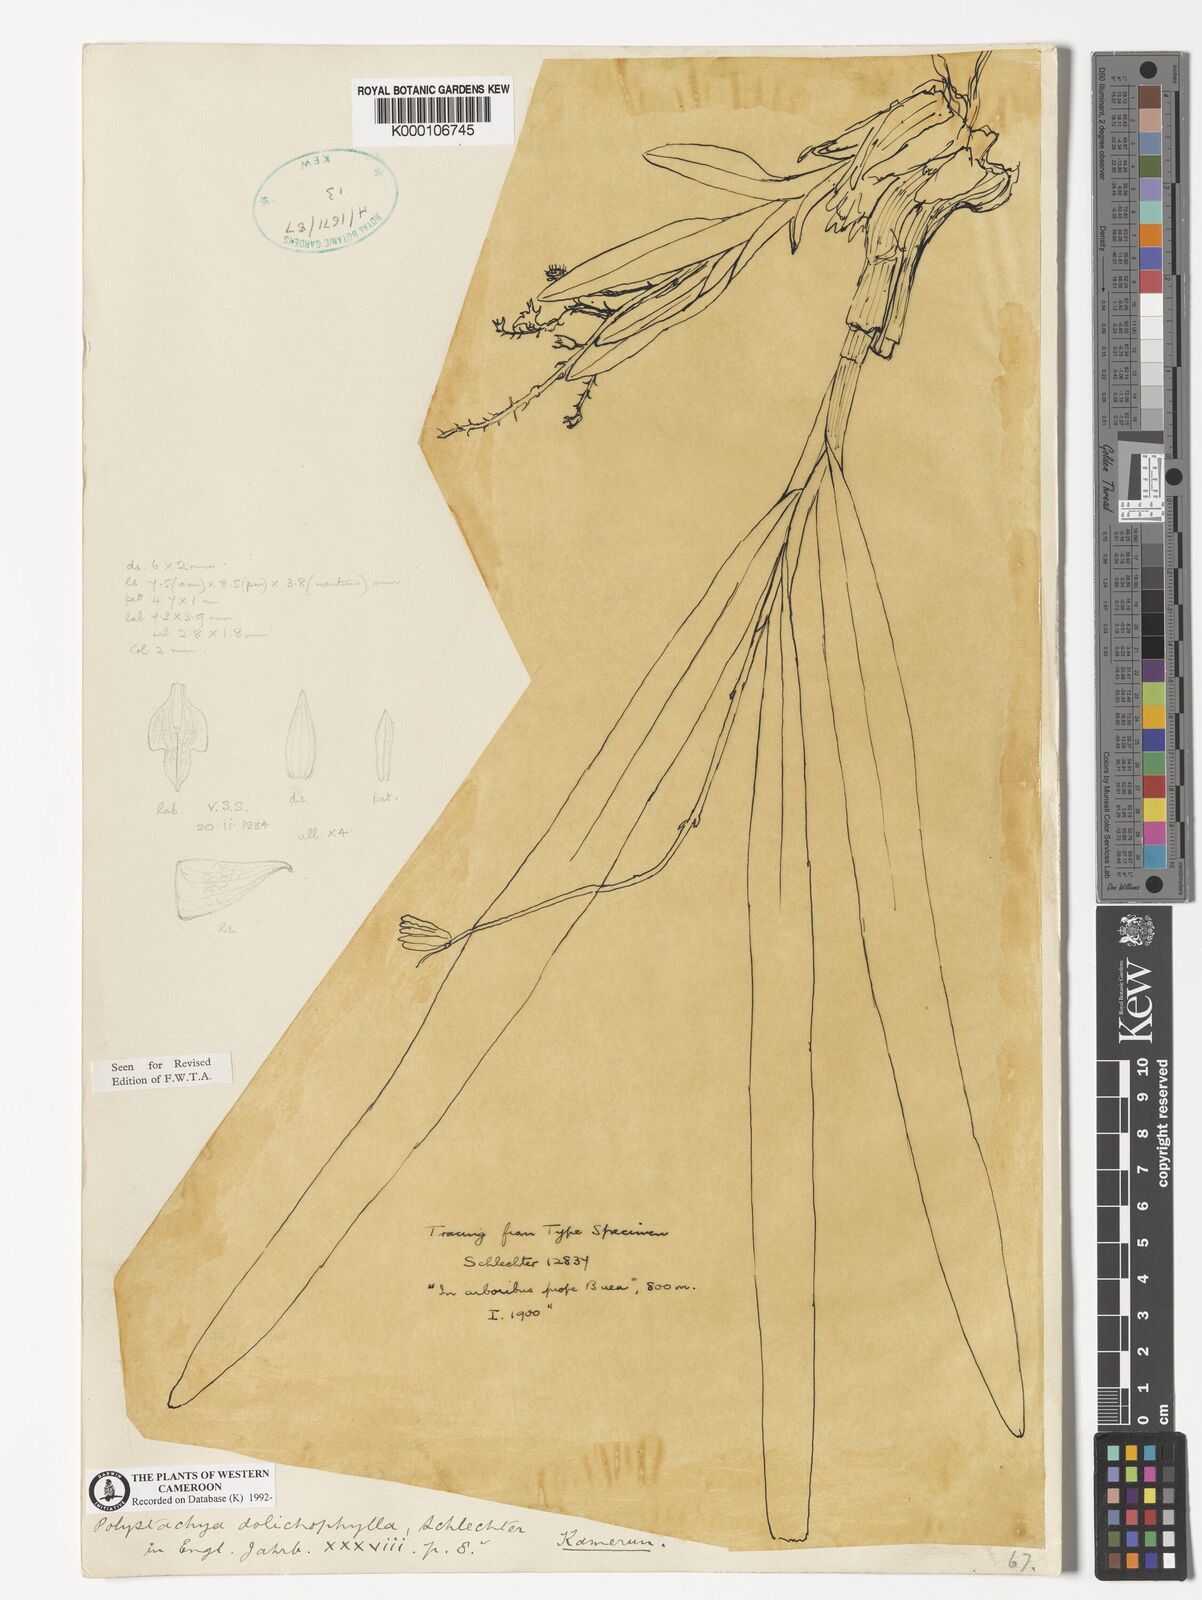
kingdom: Plantae
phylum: Tracheophyta
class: Liliopsida
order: Asparagales
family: Orchidaceae
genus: Polystachya
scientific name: Polystachya dolichophylla
